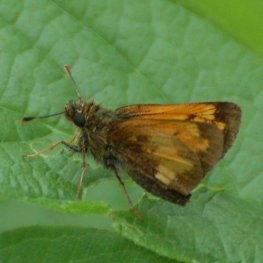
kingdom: Animalia
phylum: Arthropoda
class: Insecta
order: Lepidoptera
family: Hesperiidae
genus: Lon
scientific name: Lon hobomok
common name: Hobomok Skipper
